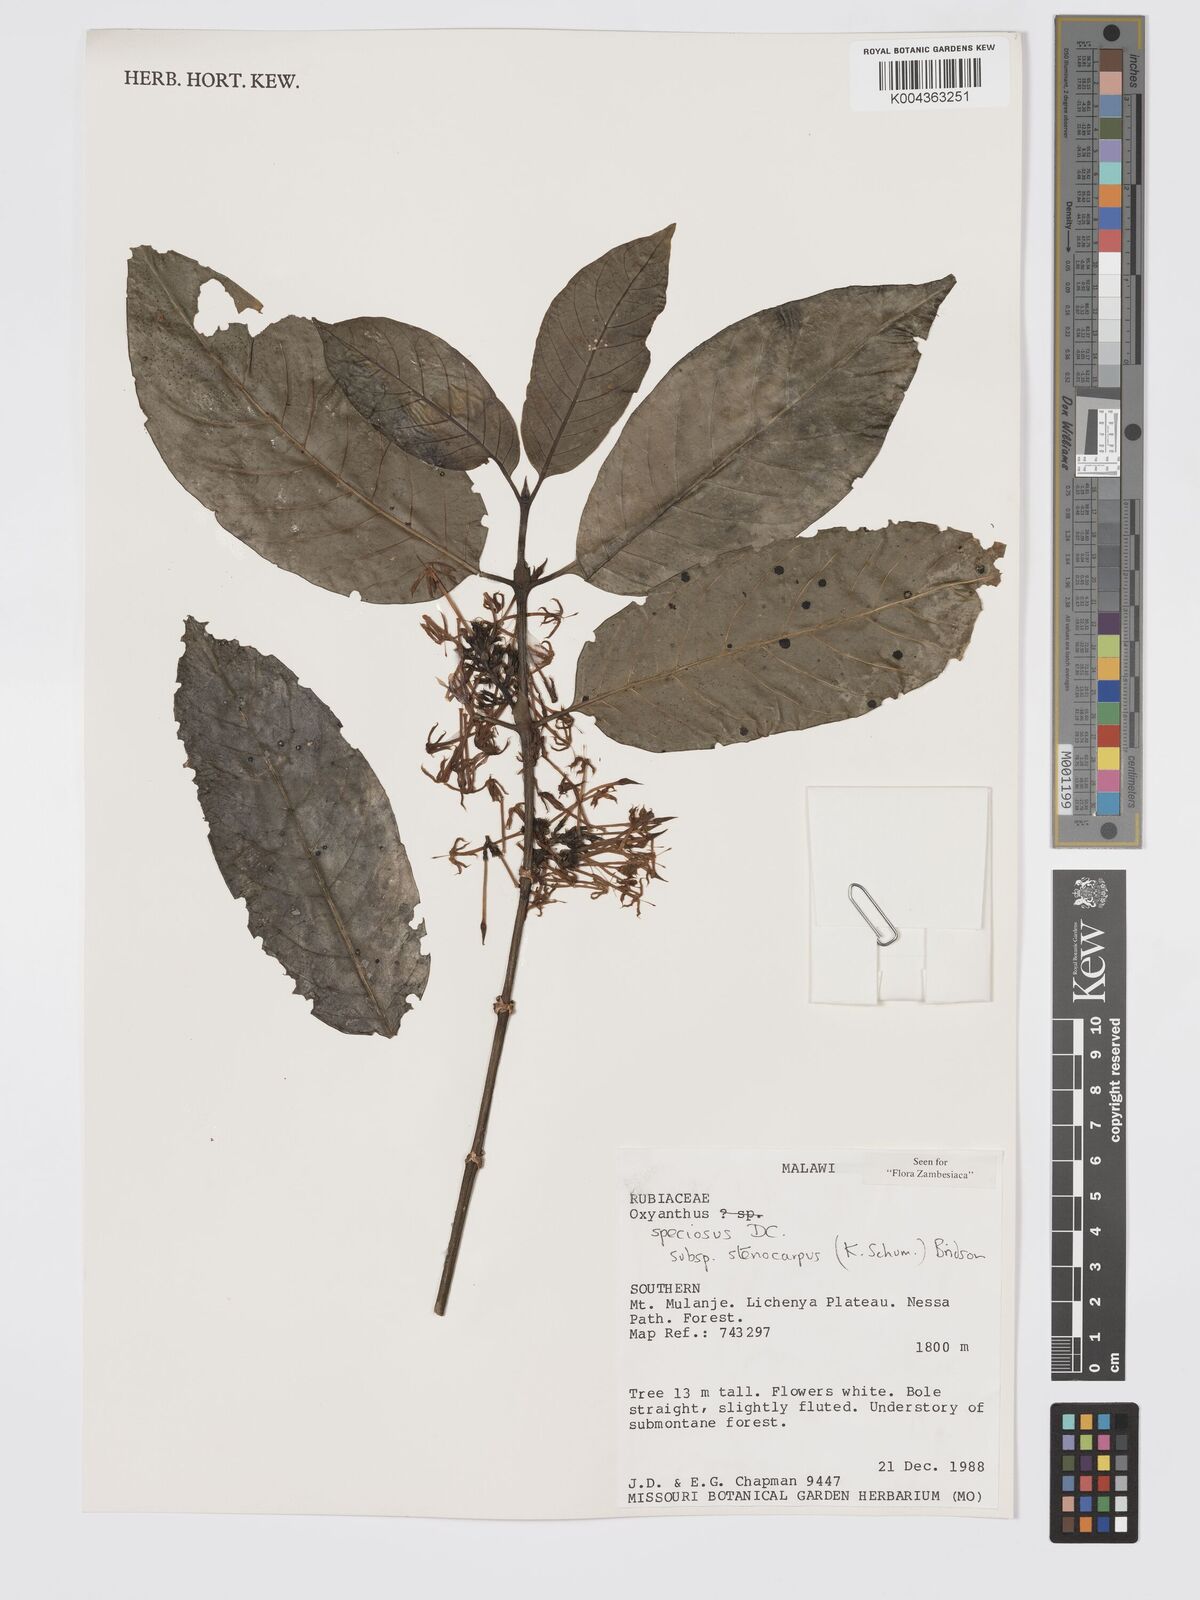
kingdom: Plantae
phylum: Tracheophyta
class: Magnoliopsida
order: Gentianales
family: Rubiaceae
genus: Oxyanthus
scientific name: Oxyanthus speciosus
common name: Whipstick loquat
